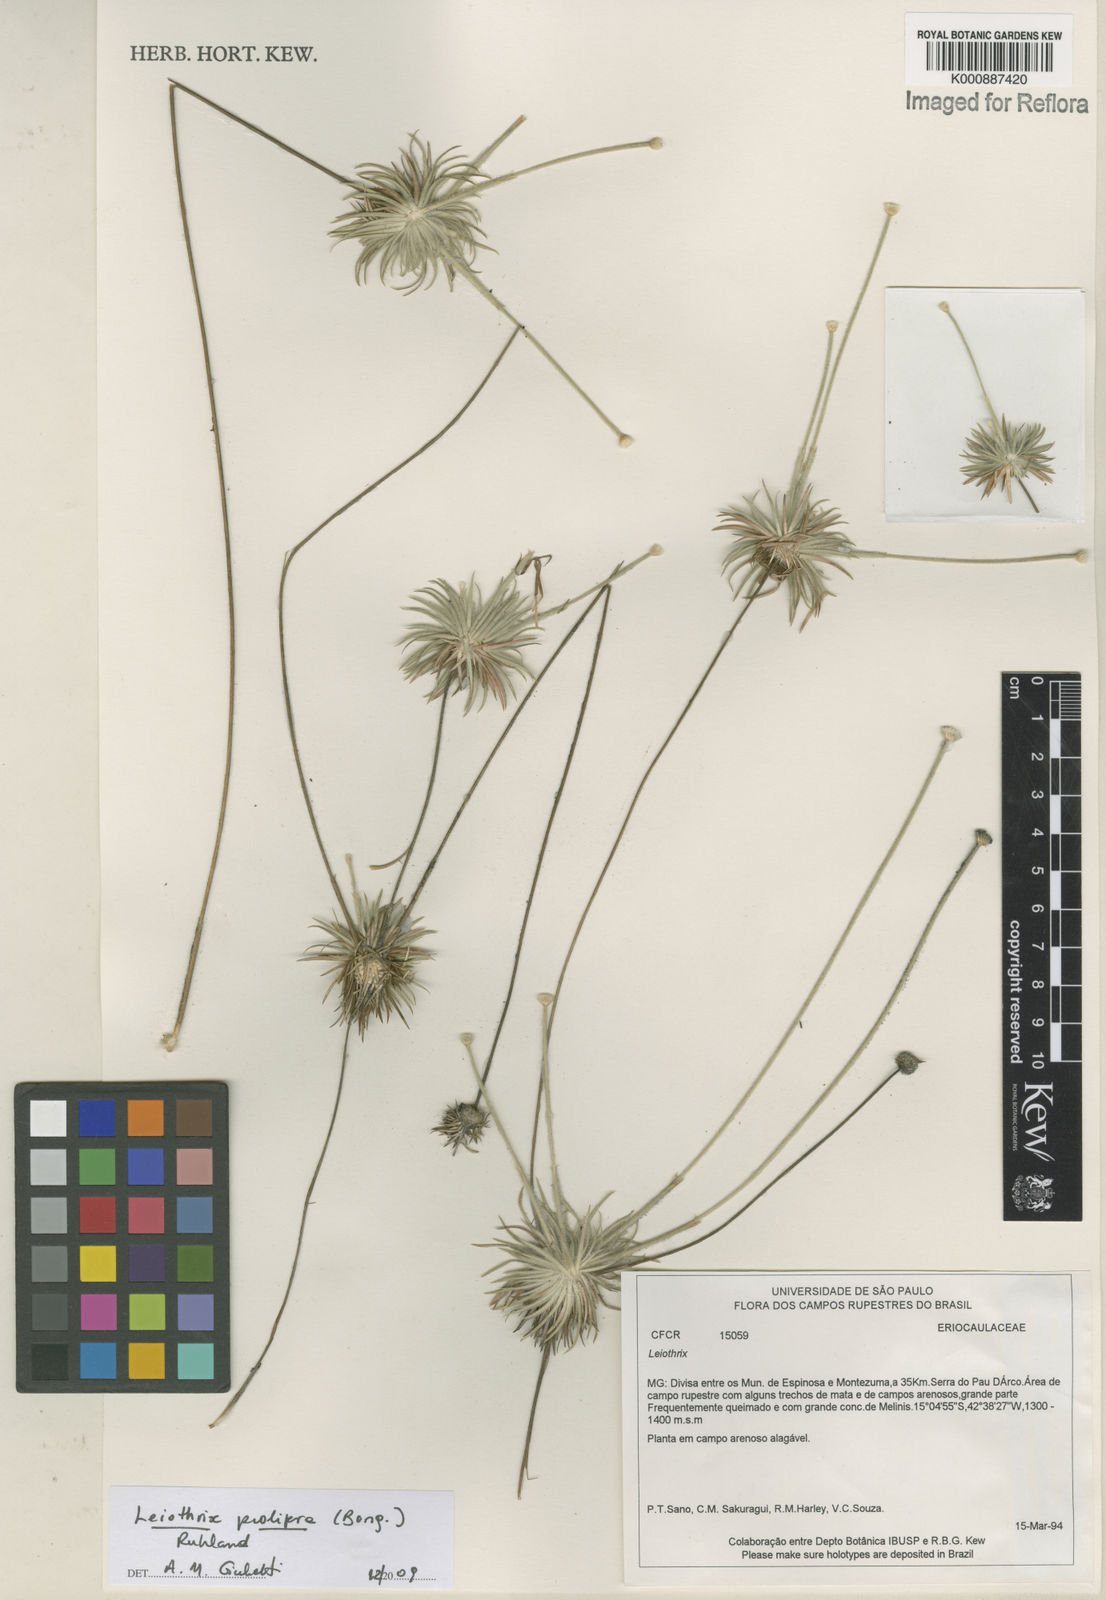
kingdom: Plantae
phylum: Tracheophyta
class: Liliopsida
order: Poales
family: Eriocaulaceae
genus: Leiothrix
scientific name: Leiothrix prolifera
